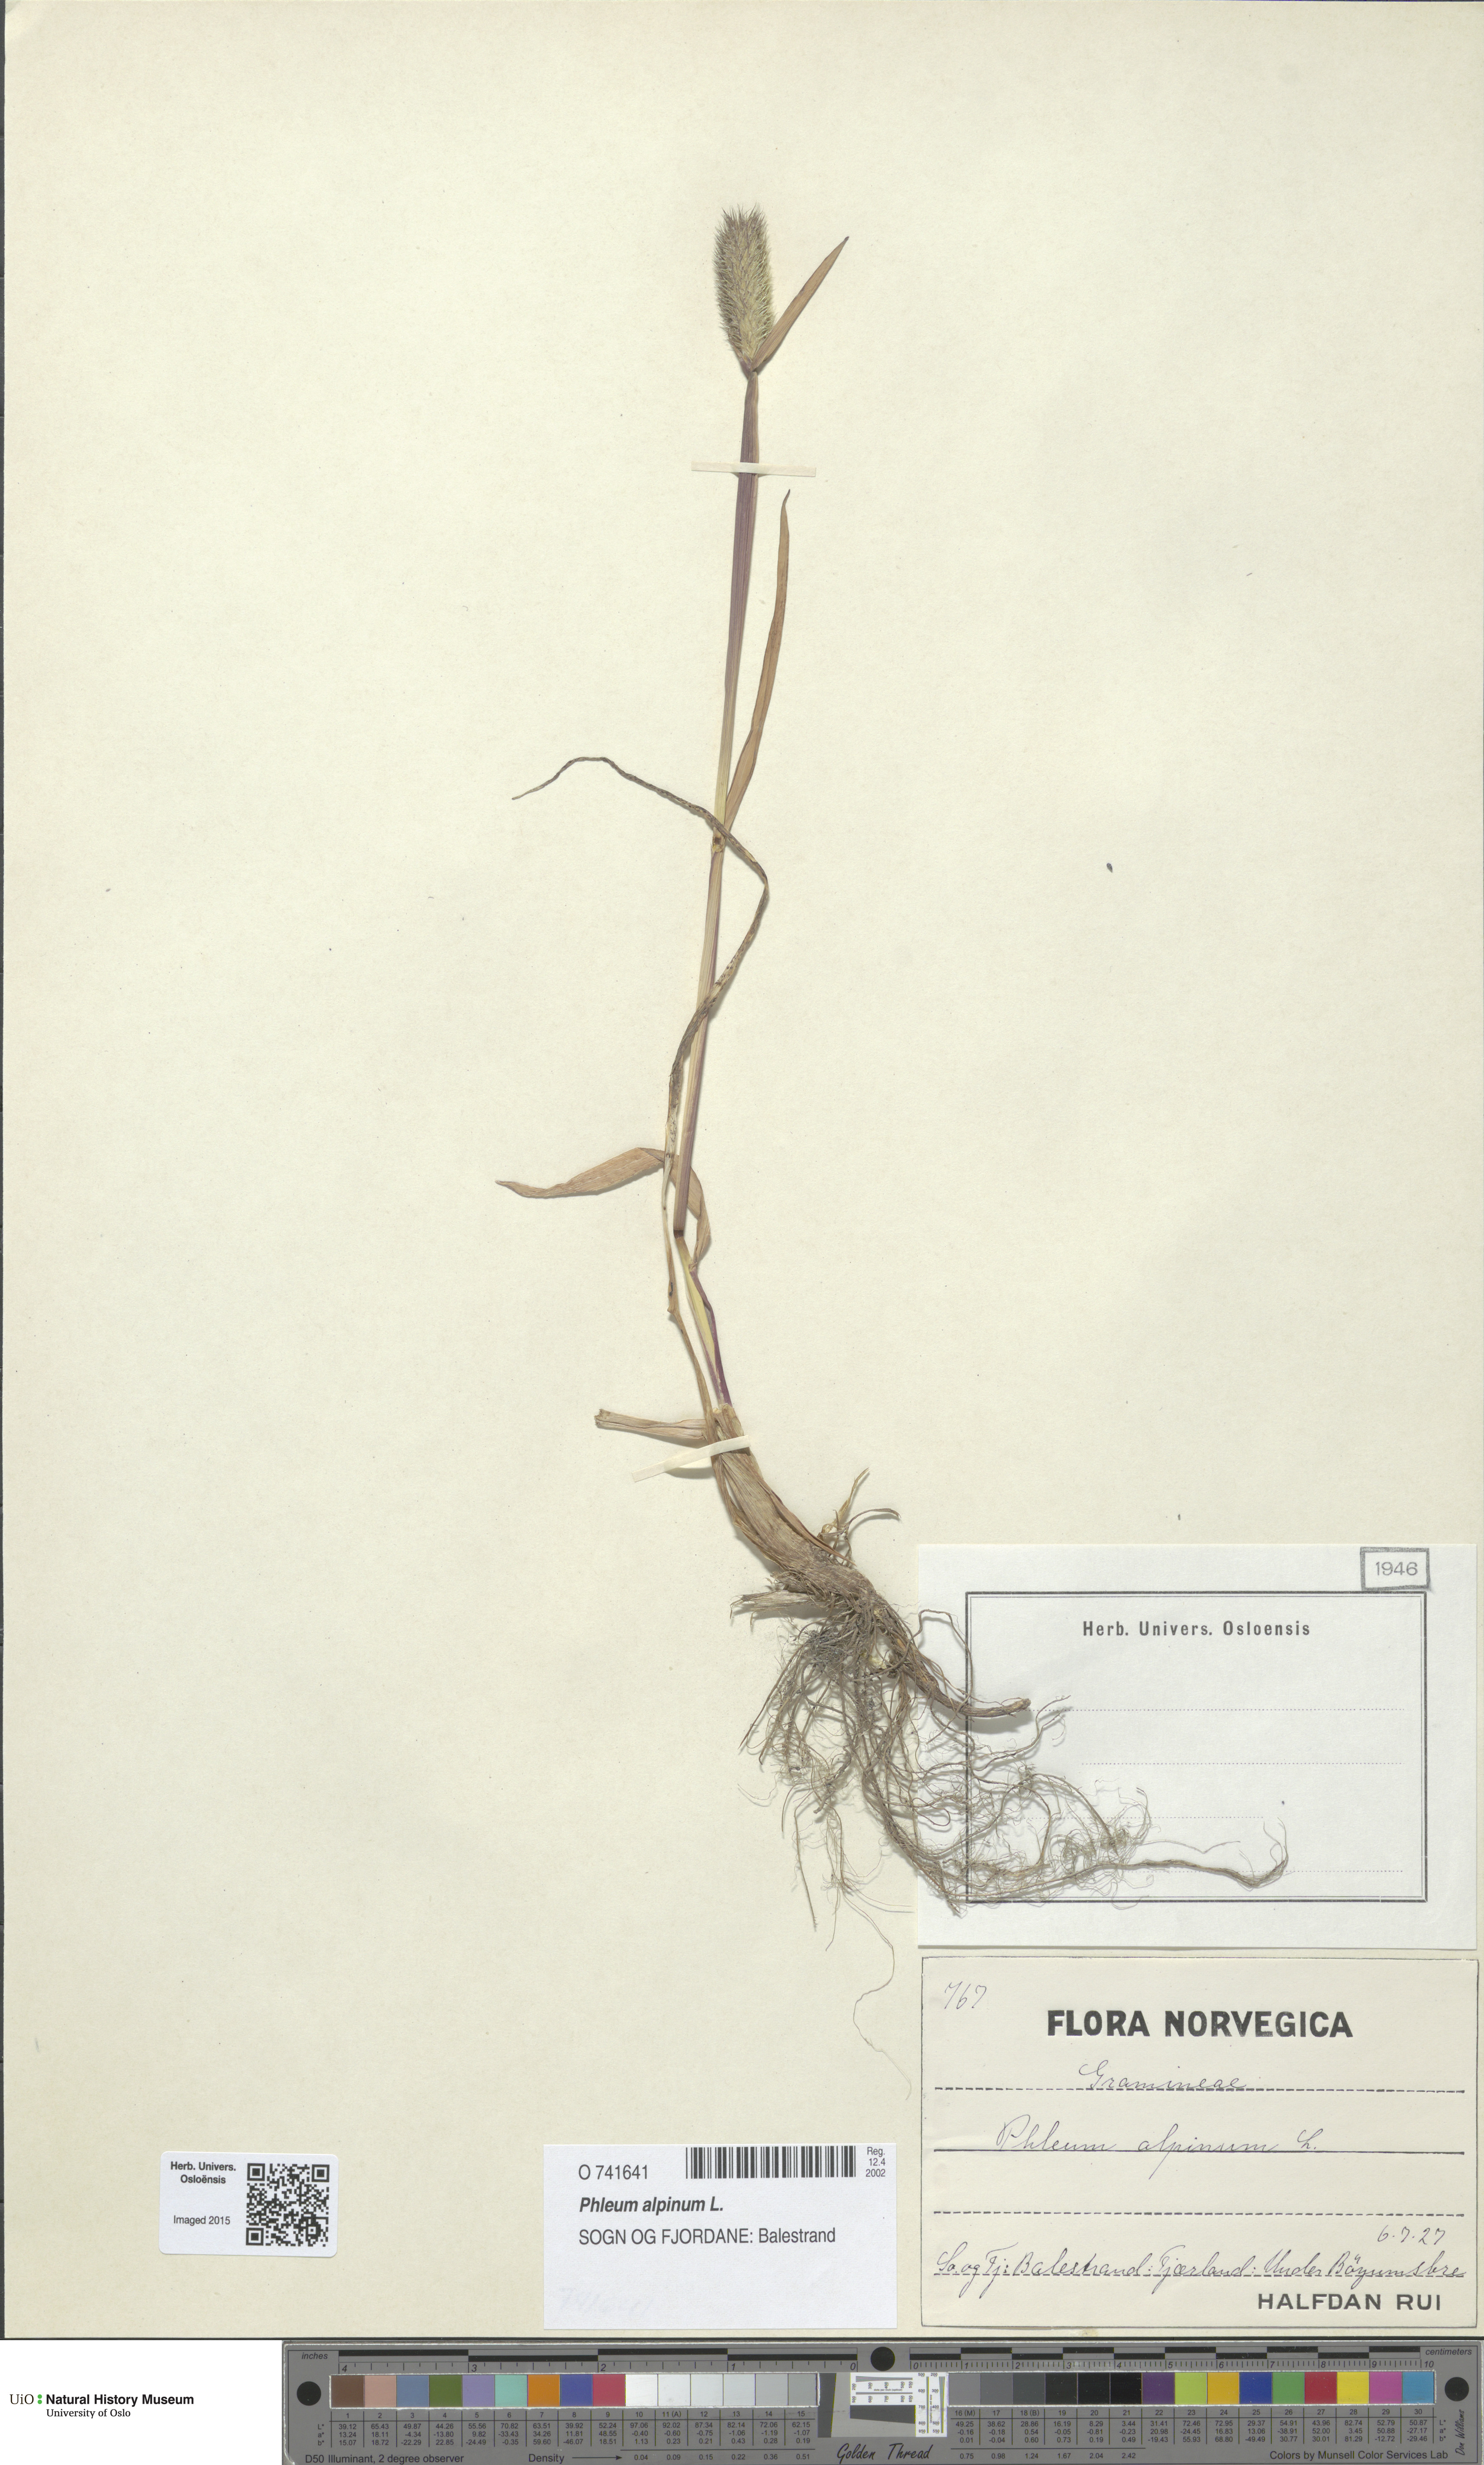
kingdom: Plantae
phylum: Tracheophyta
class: Liliopsida
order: Poales
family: Poaceae
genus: Phleum
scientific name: Phleum alpinum
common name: Alpine cat's-tail
